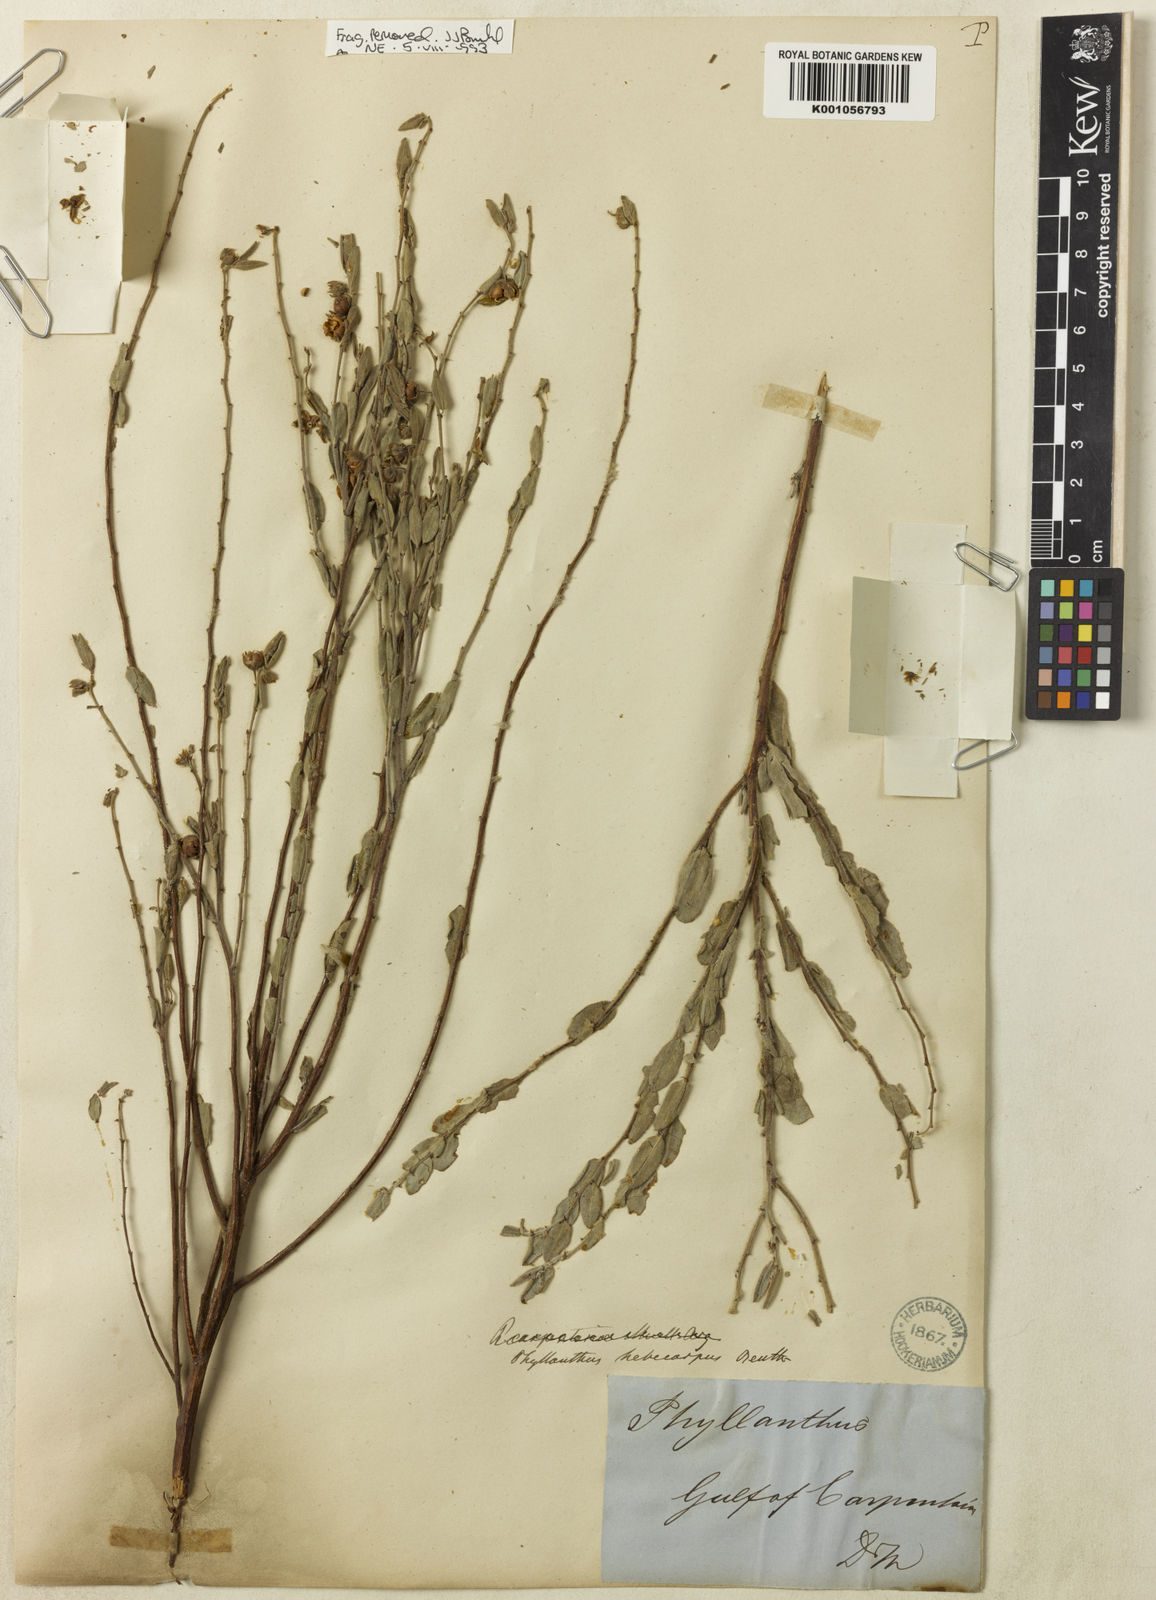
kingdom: Plantae
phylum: Tracheophyta
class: Magnoliopsida
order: Malpighiales
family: Phyllanthaceae
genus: Phyllanthus
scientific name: Phyllanthus
